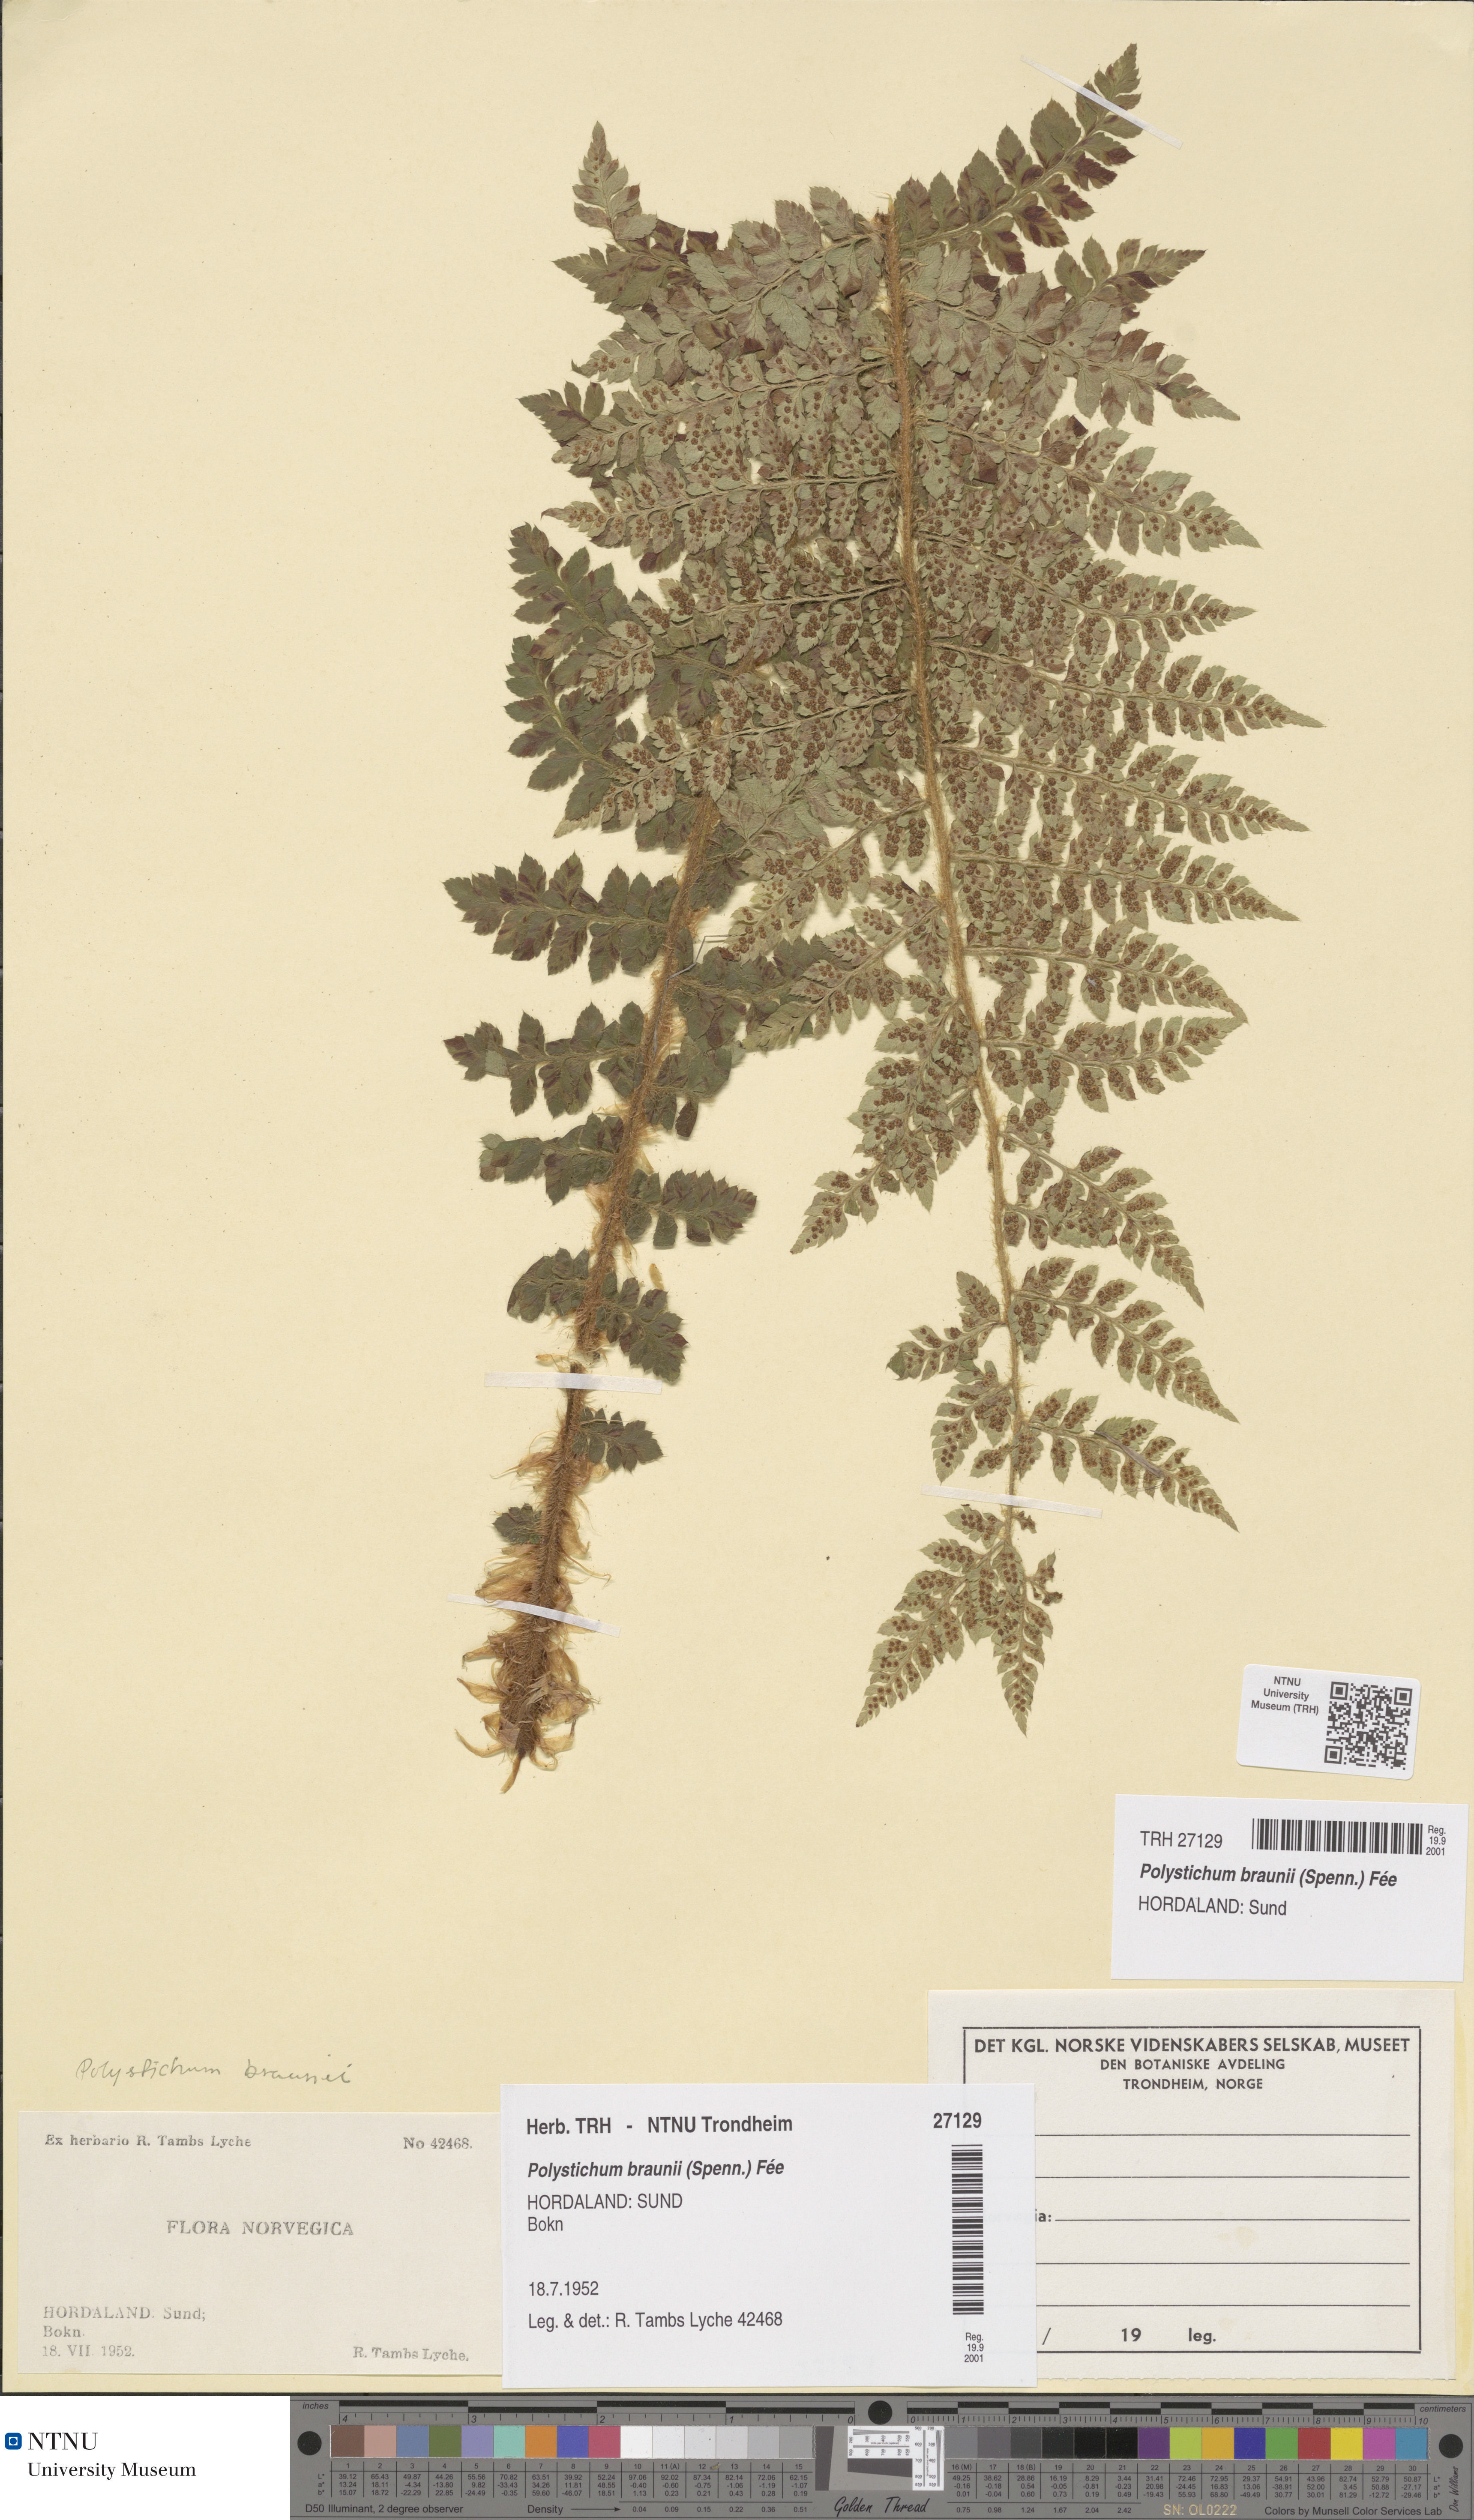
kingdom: Plantae
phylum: Tracheophyta
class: Polypodiopsida
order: Polypodiales
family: Dryopteridaceae
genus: Polystichum
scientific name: Polystichum braunii
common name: Braun's holly fern
